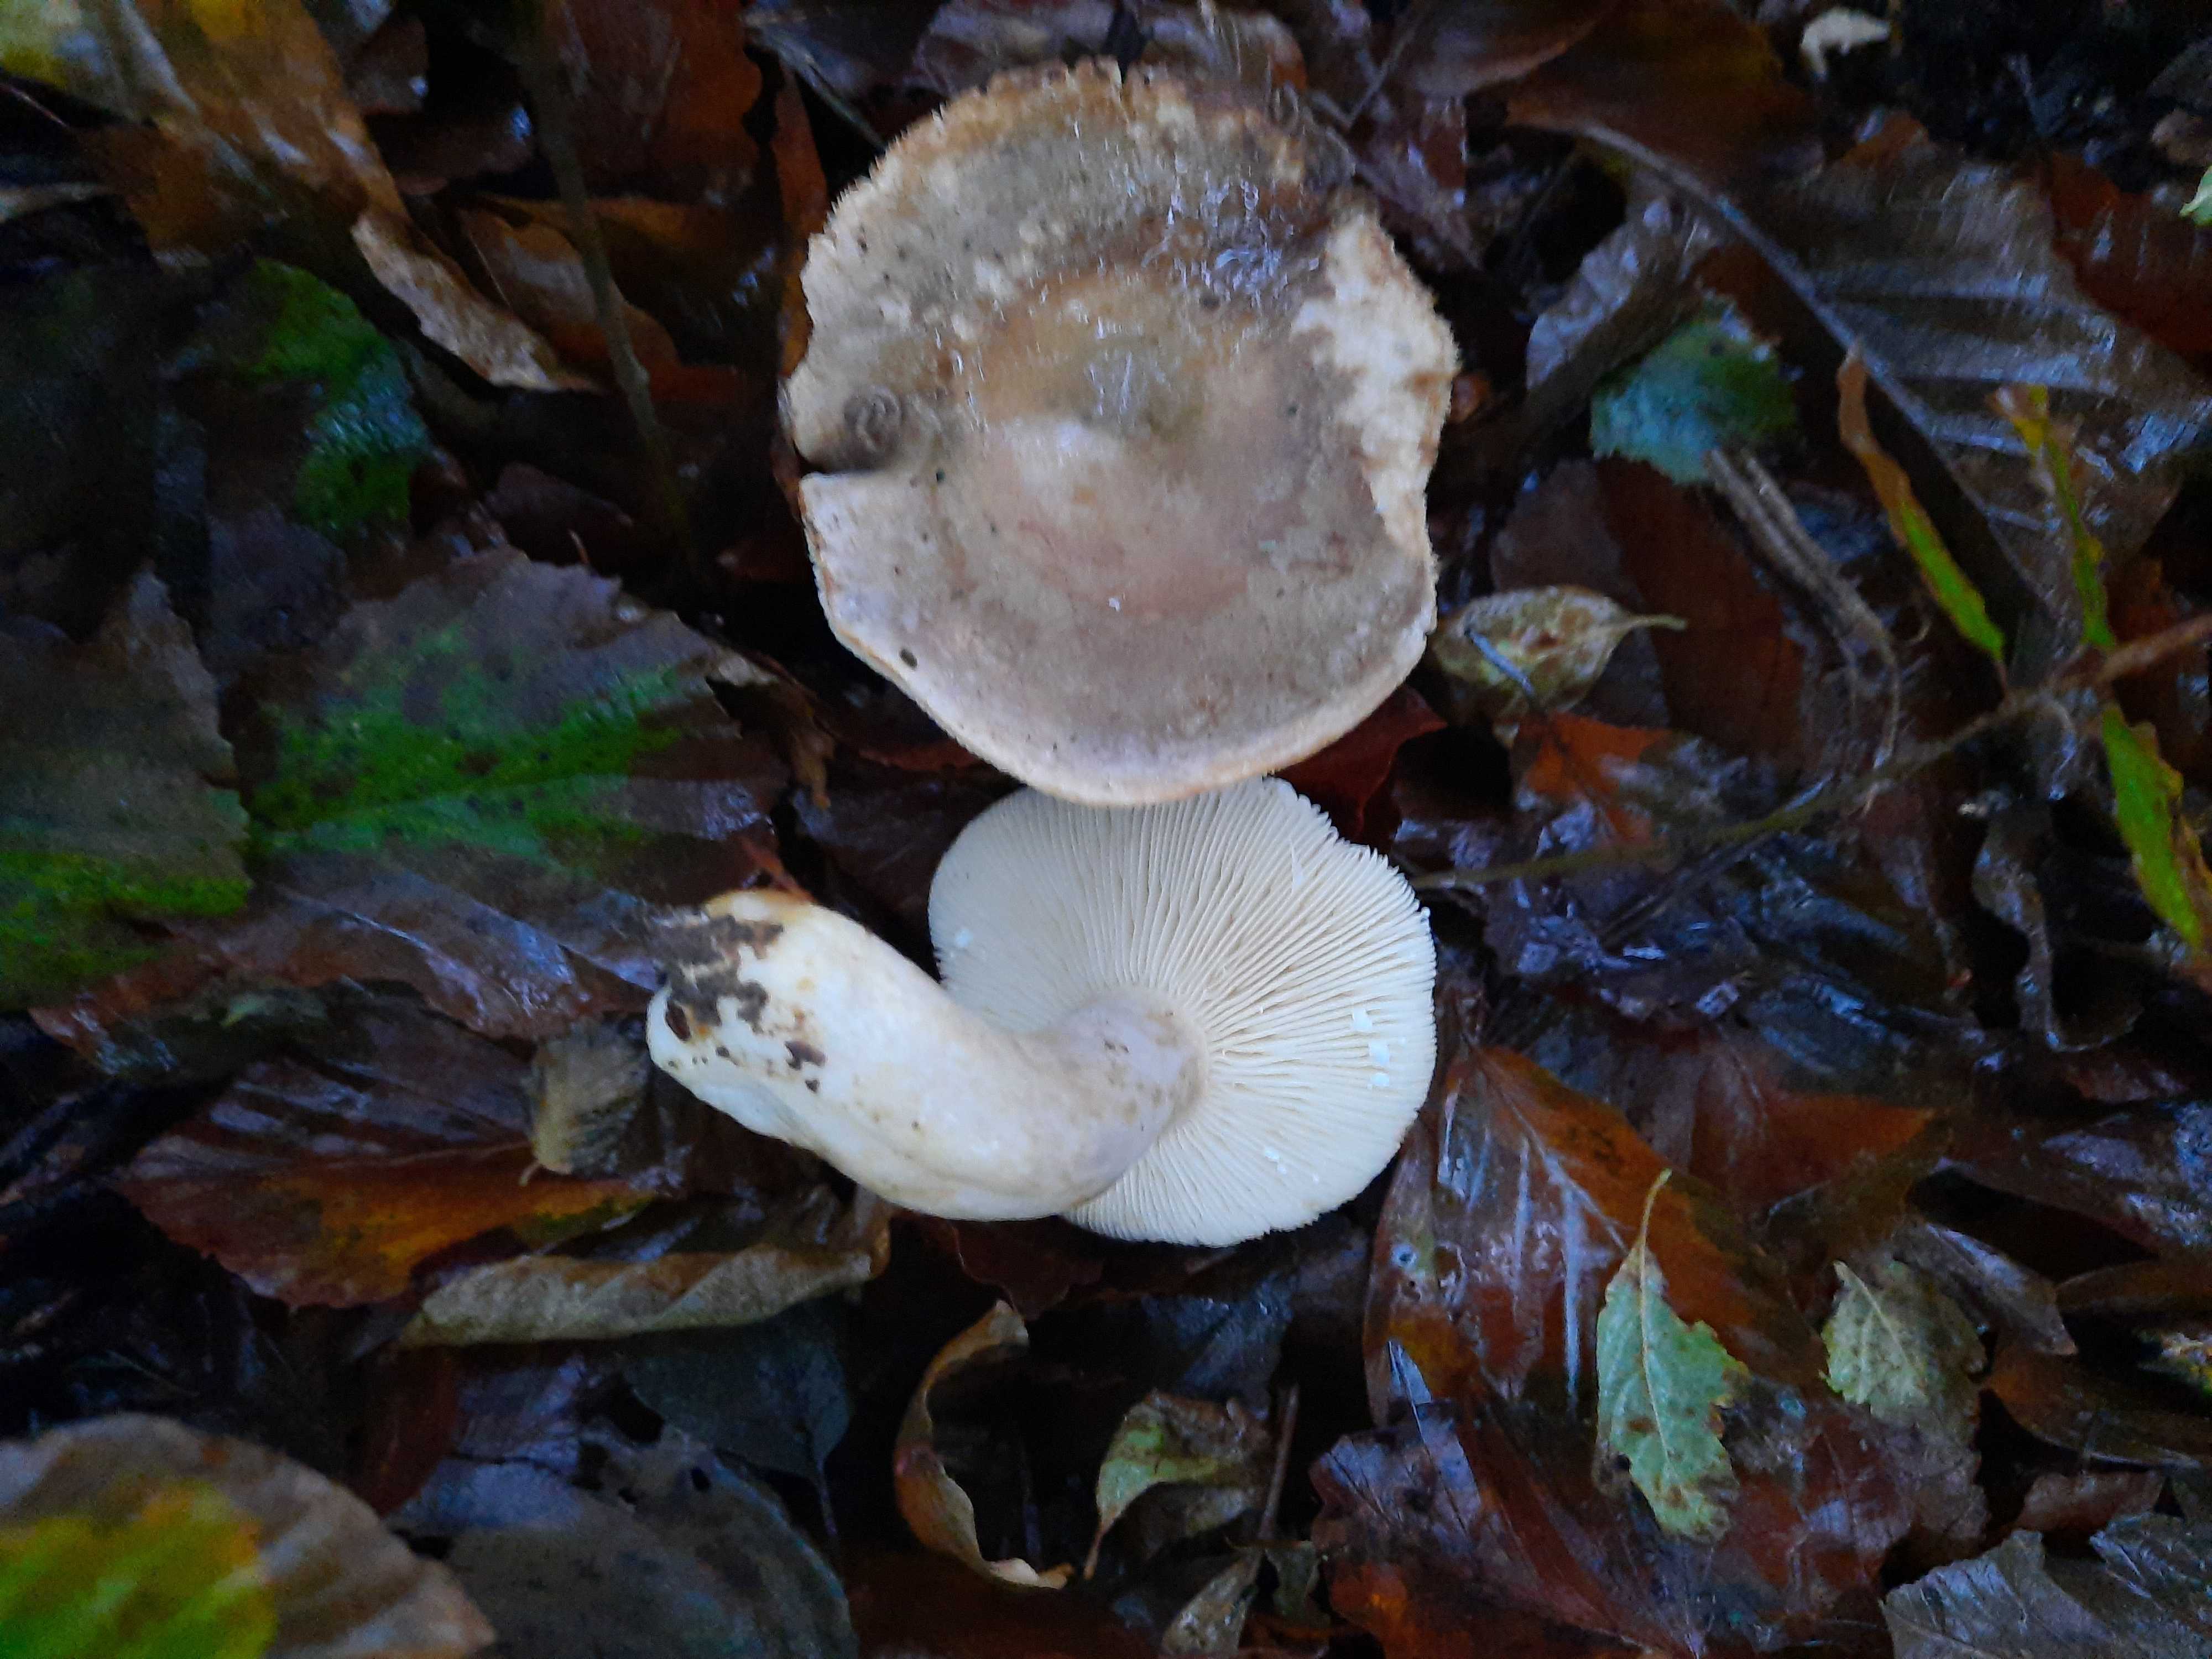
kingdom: Fungi
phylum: Basidiomycota
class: Agaricomycetes
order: Russulales
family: Russulaceae
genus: Lactarius
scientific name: Lactarius fluens
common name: lysrandet mælkehat
